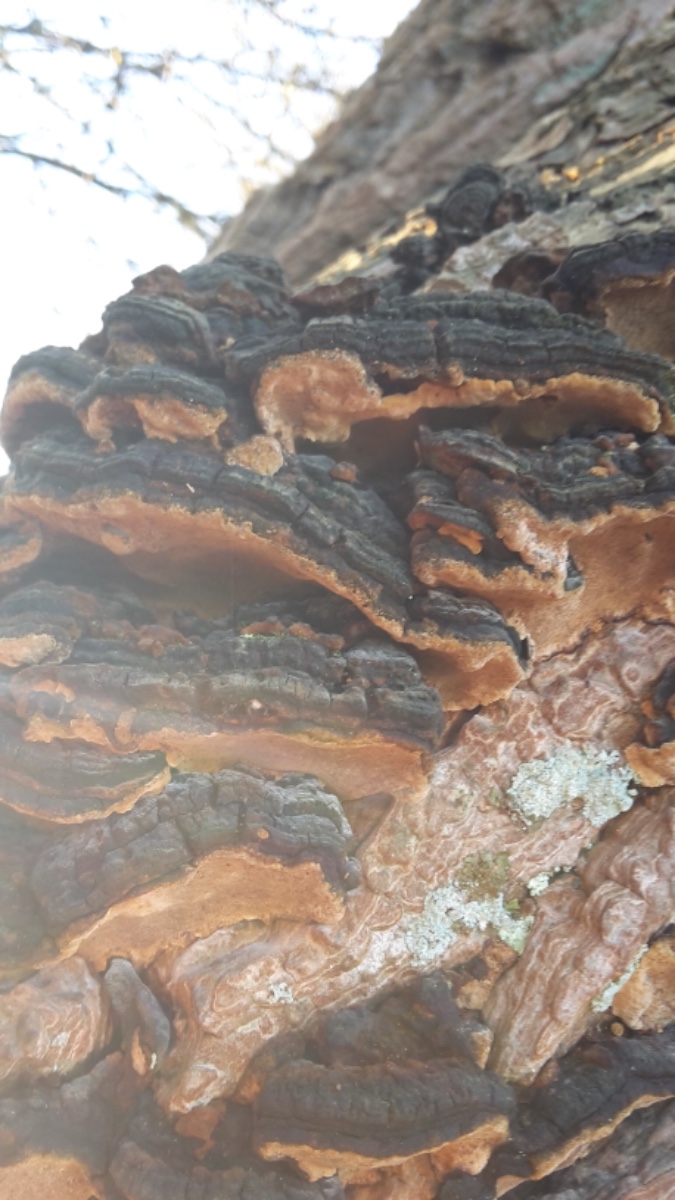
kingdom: Fungi
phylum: Basidiomycota
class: Agaricomycetes
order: Hymenochaetales
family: Hymenochaetaceae
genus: Phellinopsis
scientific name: Phellinopsis conchata
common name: pile-ildporesvamp
